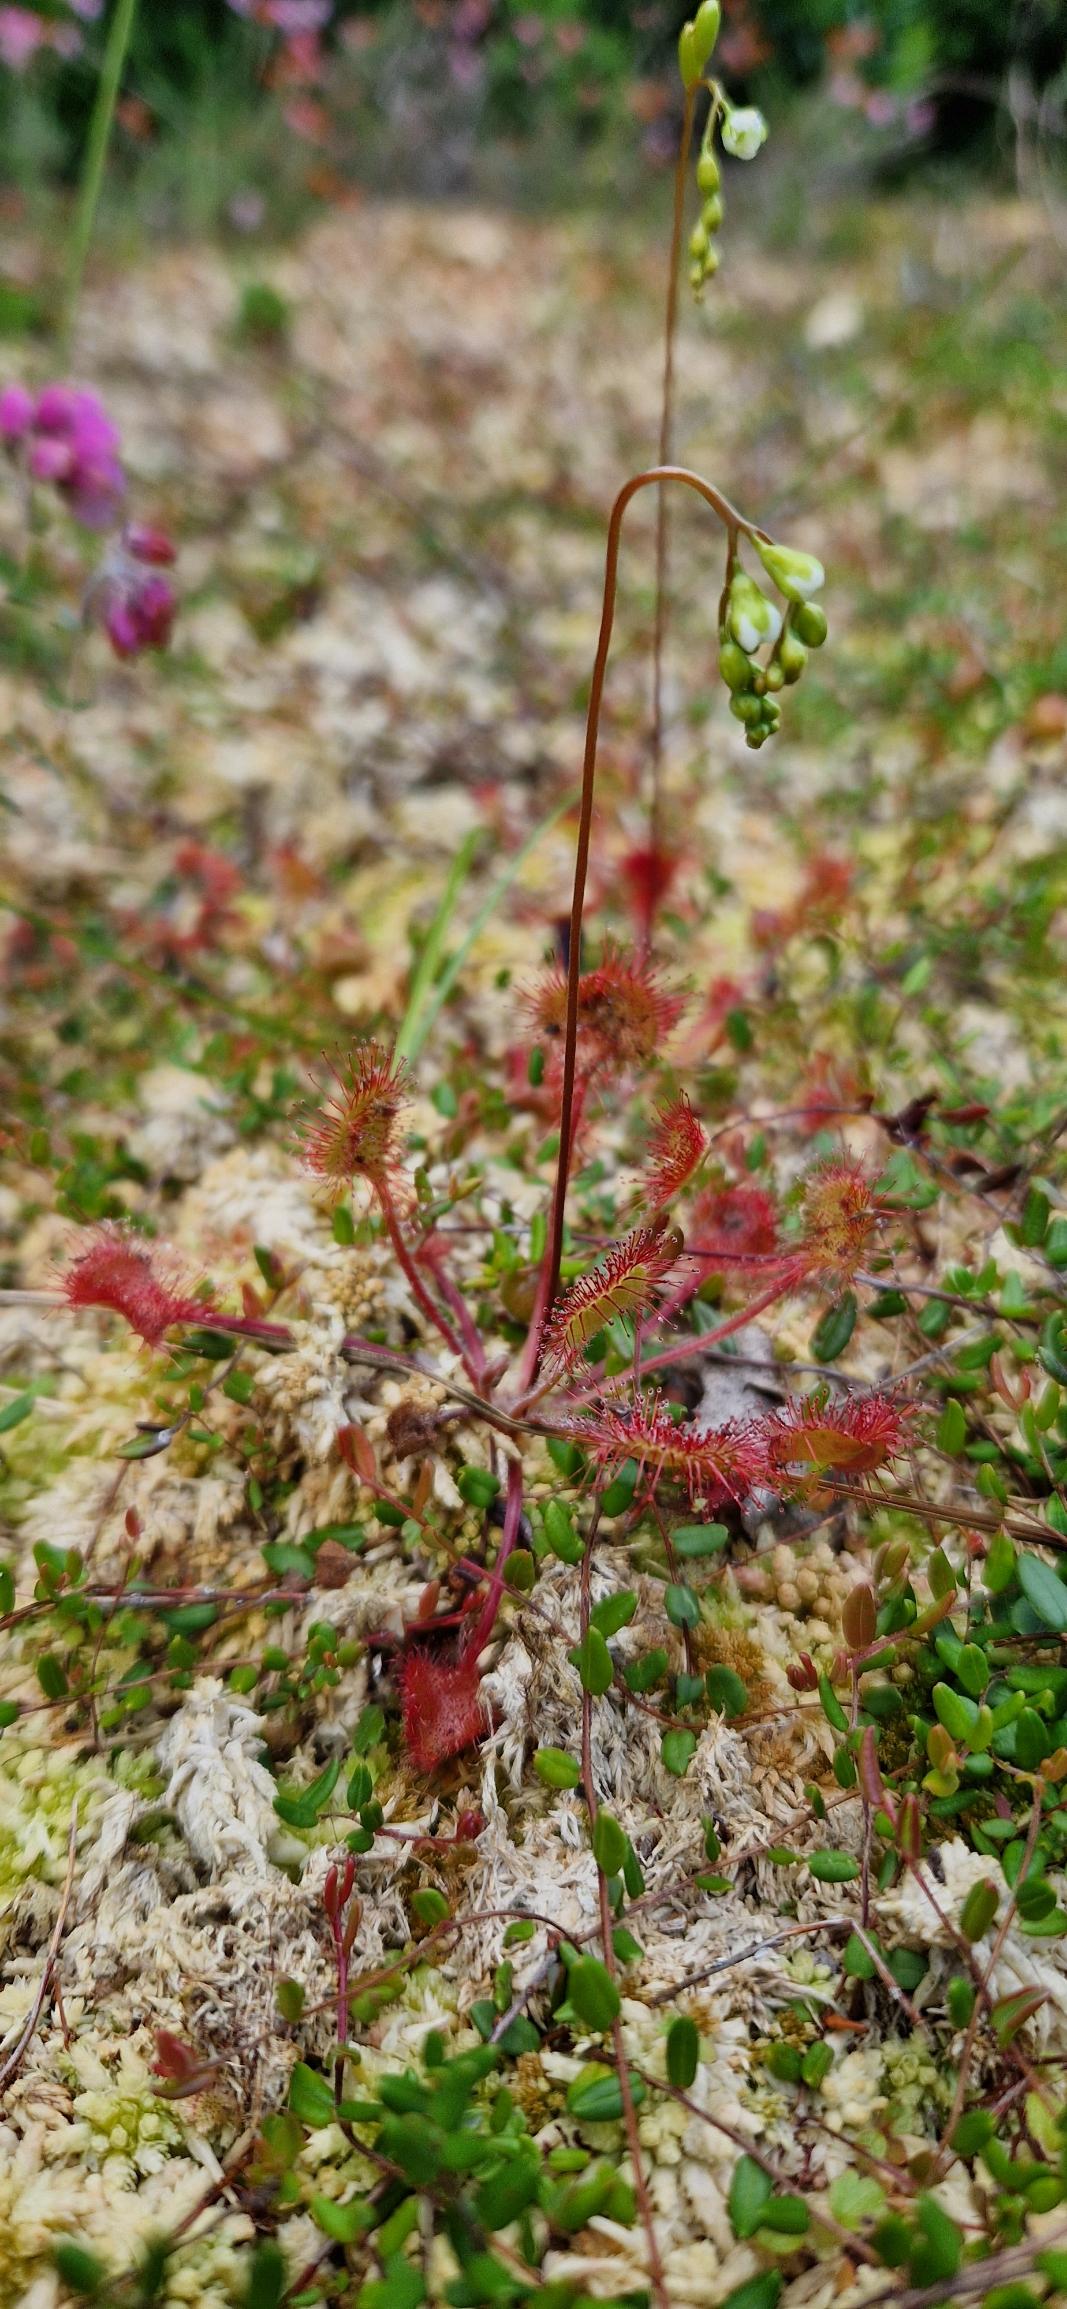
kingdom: Plantae
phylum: Tracheophyta
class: Magnoliopsida
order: Caryophyllales
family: Droseraceae
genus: Drosera
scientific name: Drosera rotundifolia
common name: Rundbladet soldug
